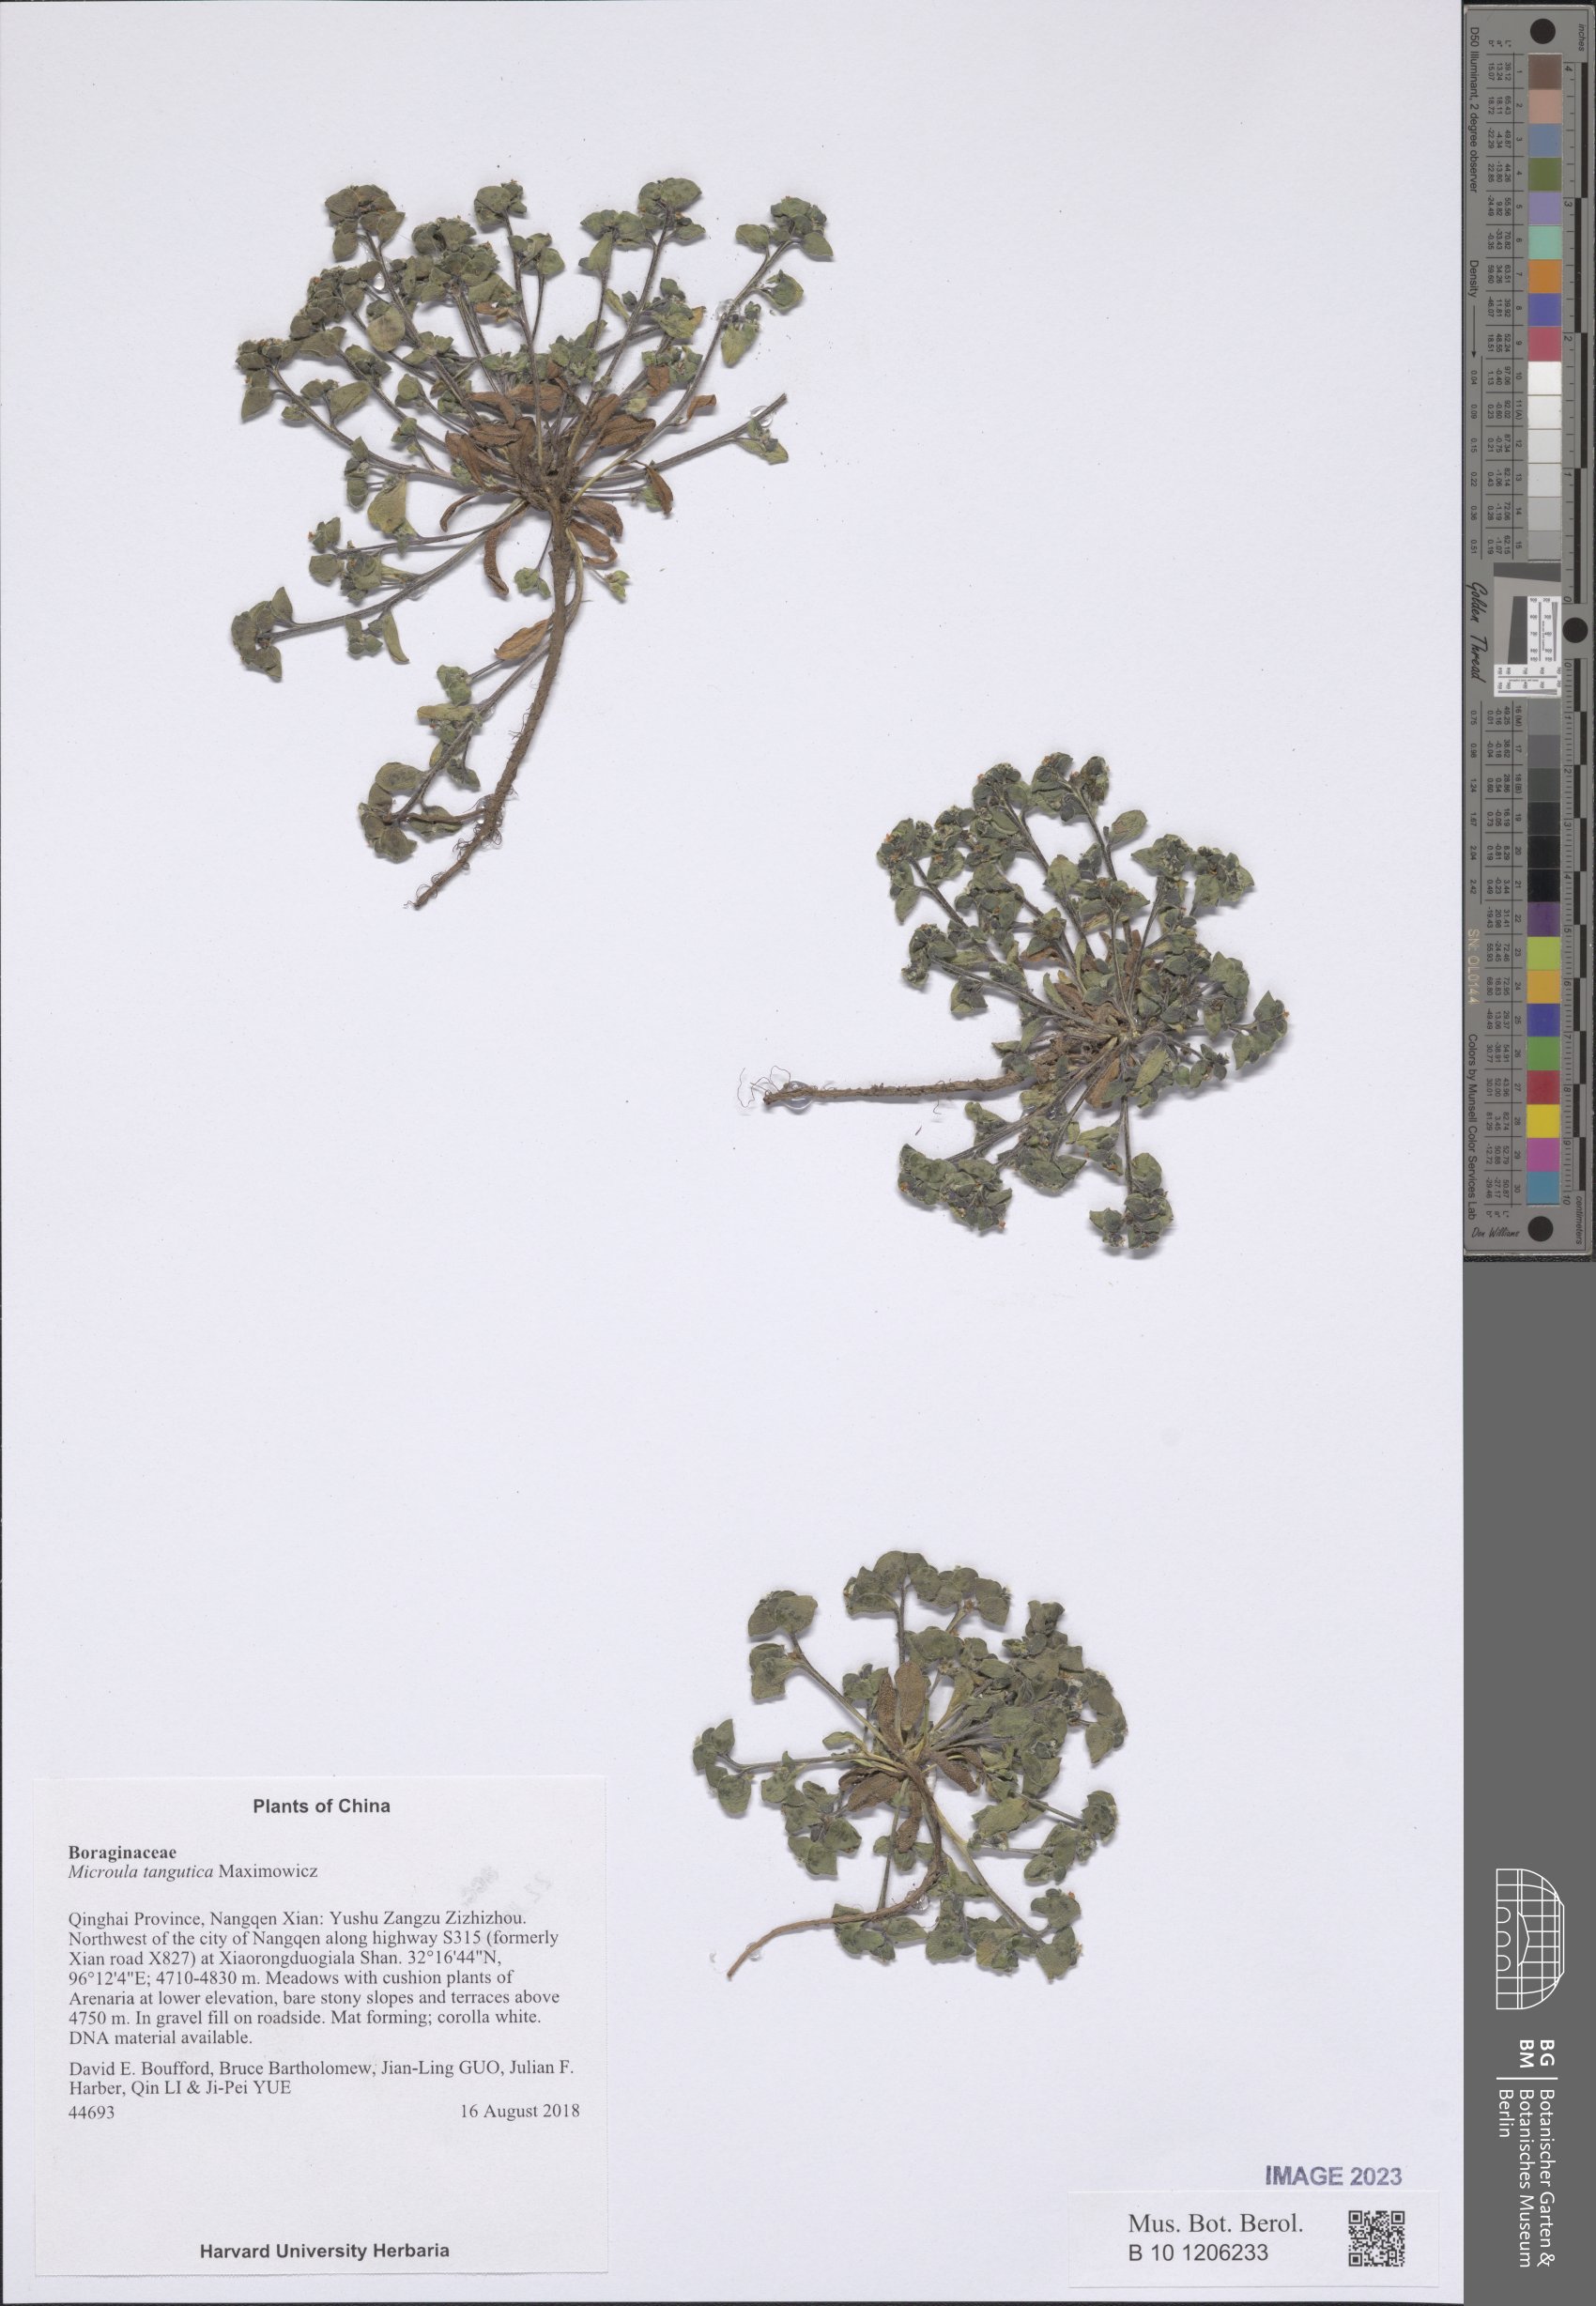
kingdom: Plantae
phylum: Tracheophyta
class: Magnoliopsida
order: Boraginales
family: Boraginaceae
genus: Microula
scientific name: Microula tangutica
